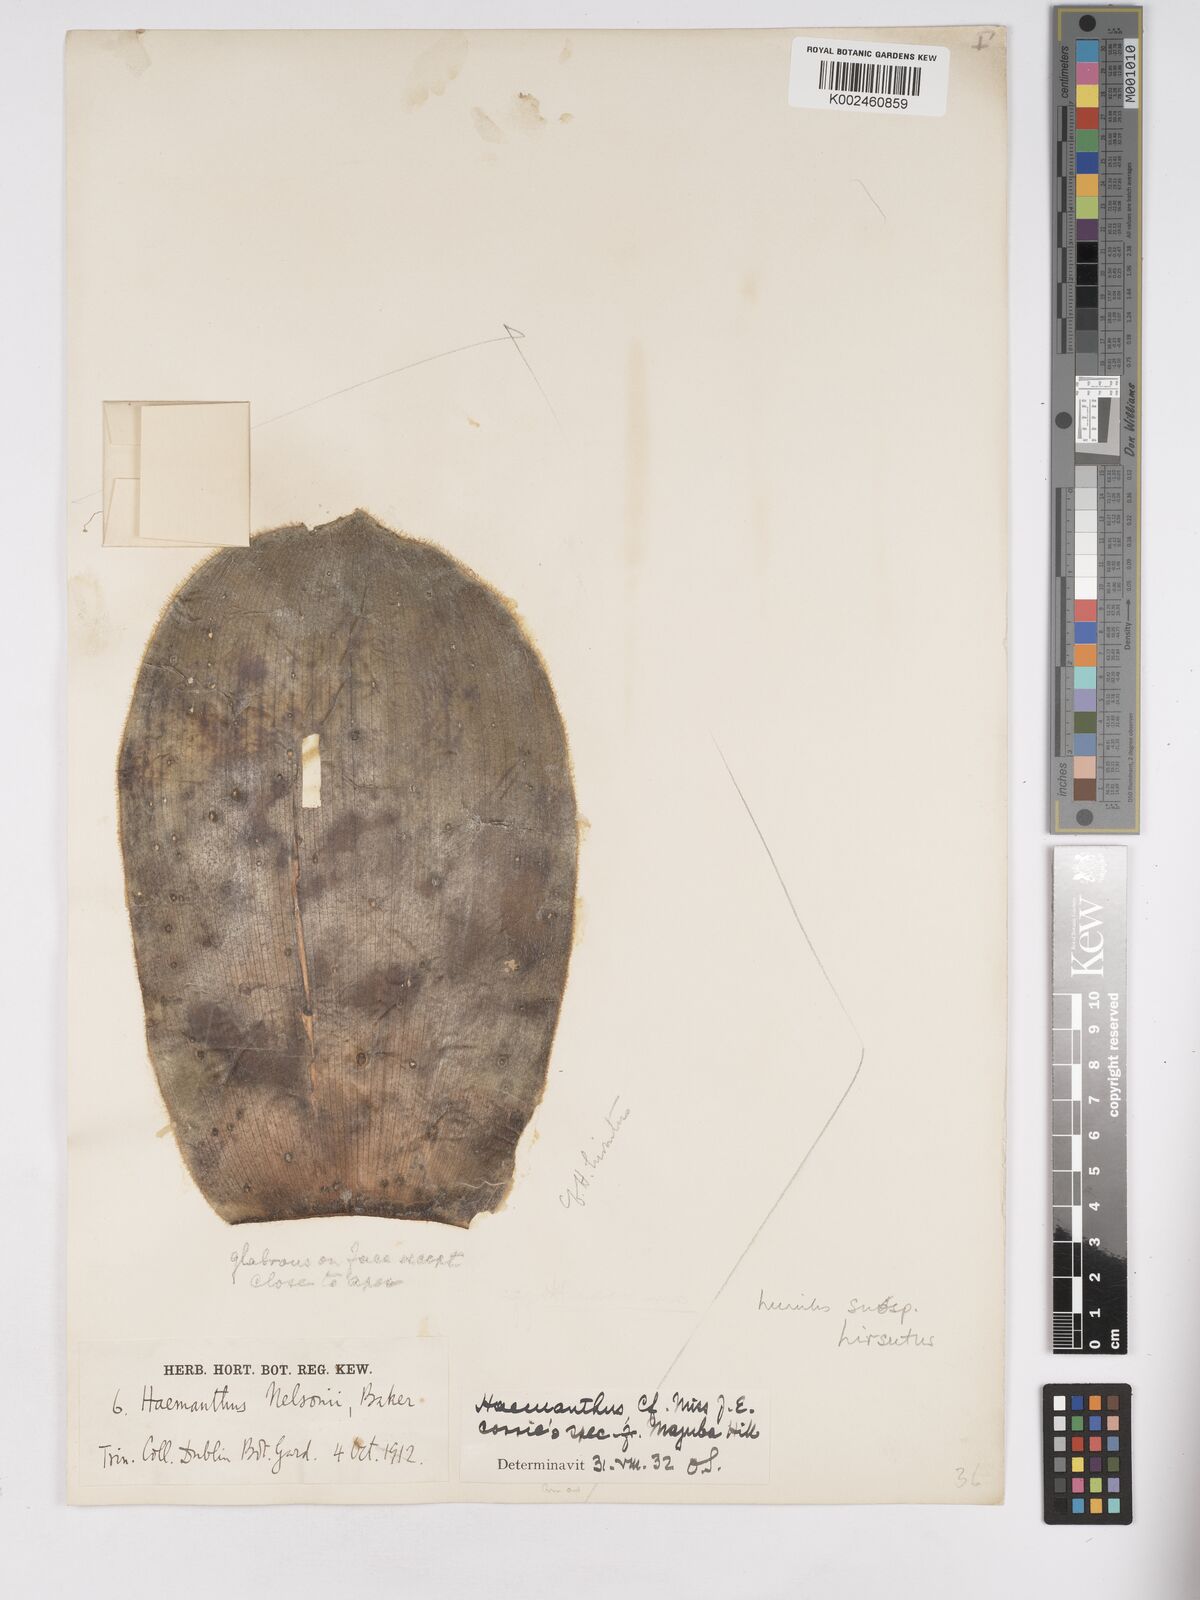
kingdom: Plantae
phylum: Tracheophyta
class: Liliopsida
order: Asparagales
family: Amaryllidaceae
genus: Haemanthus
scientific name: Haemanthus humilis
